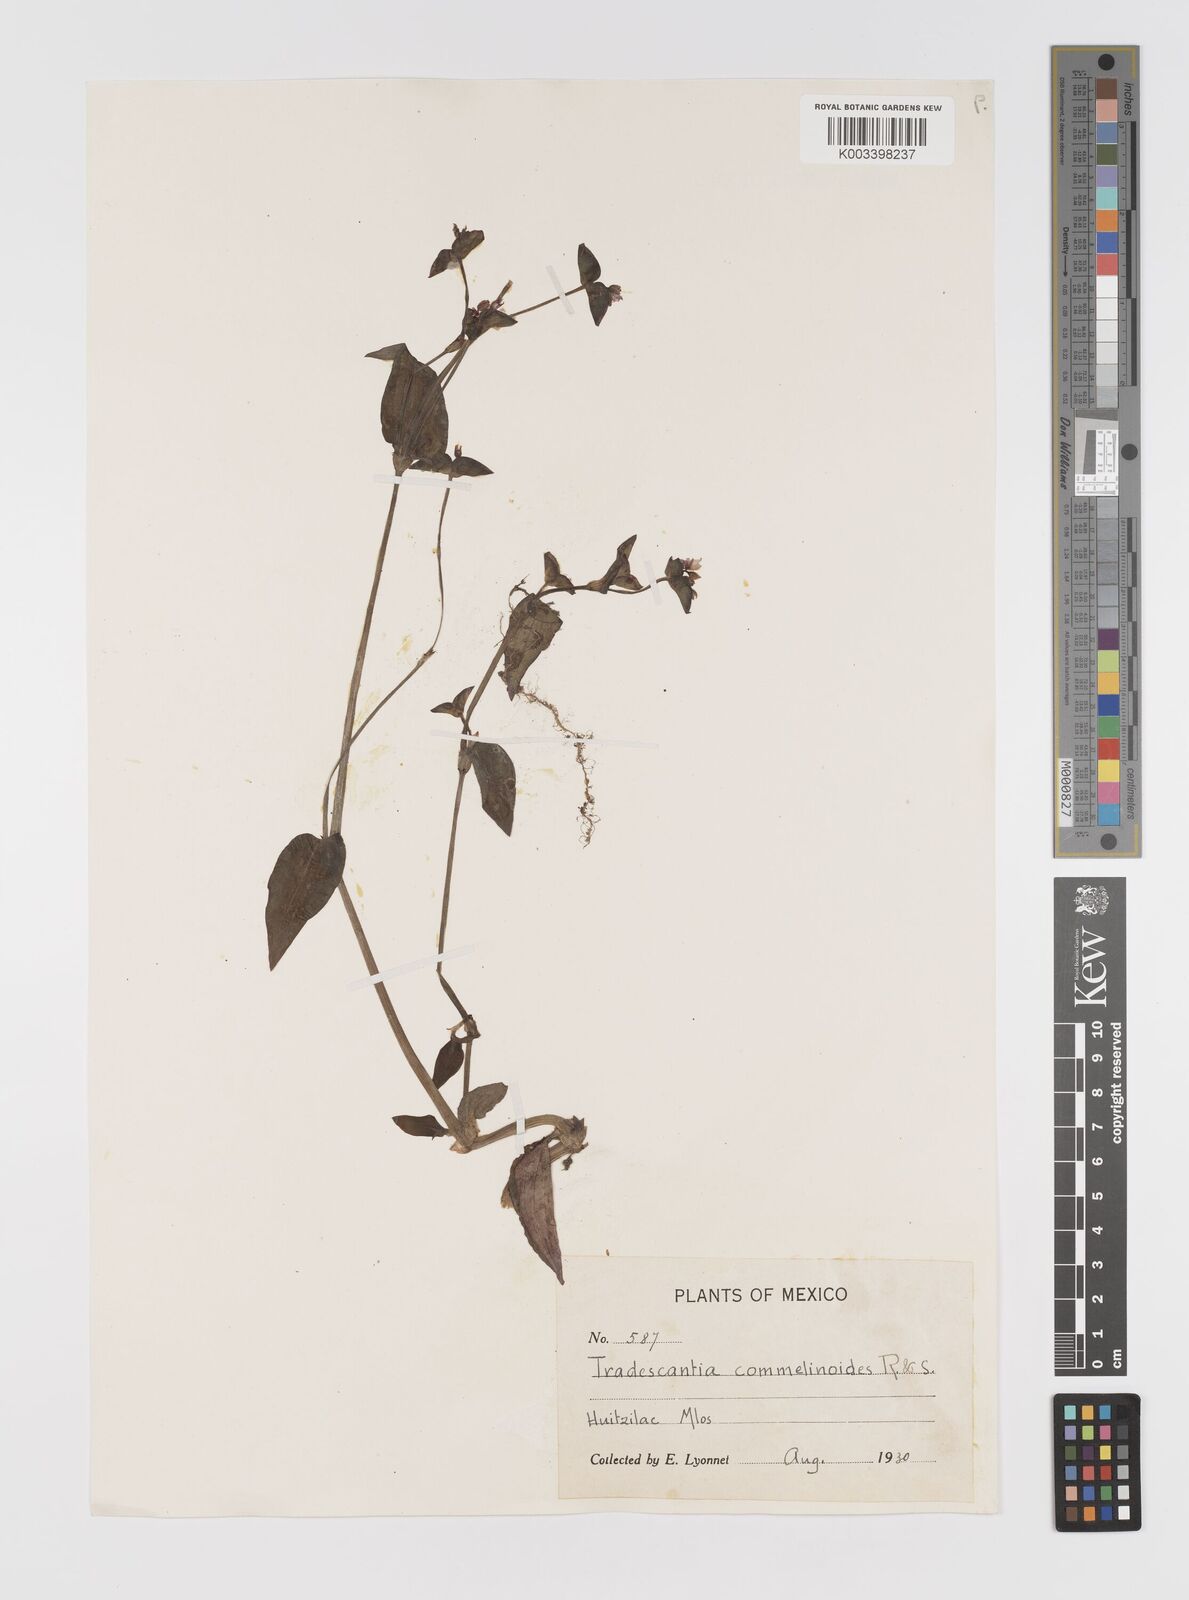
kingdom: Plantae
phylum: Tracheophyta
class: Liliopsida
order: Commelinales
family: Commelinaceae
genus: Tradescantia
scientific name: Tradescantia commelinoides
